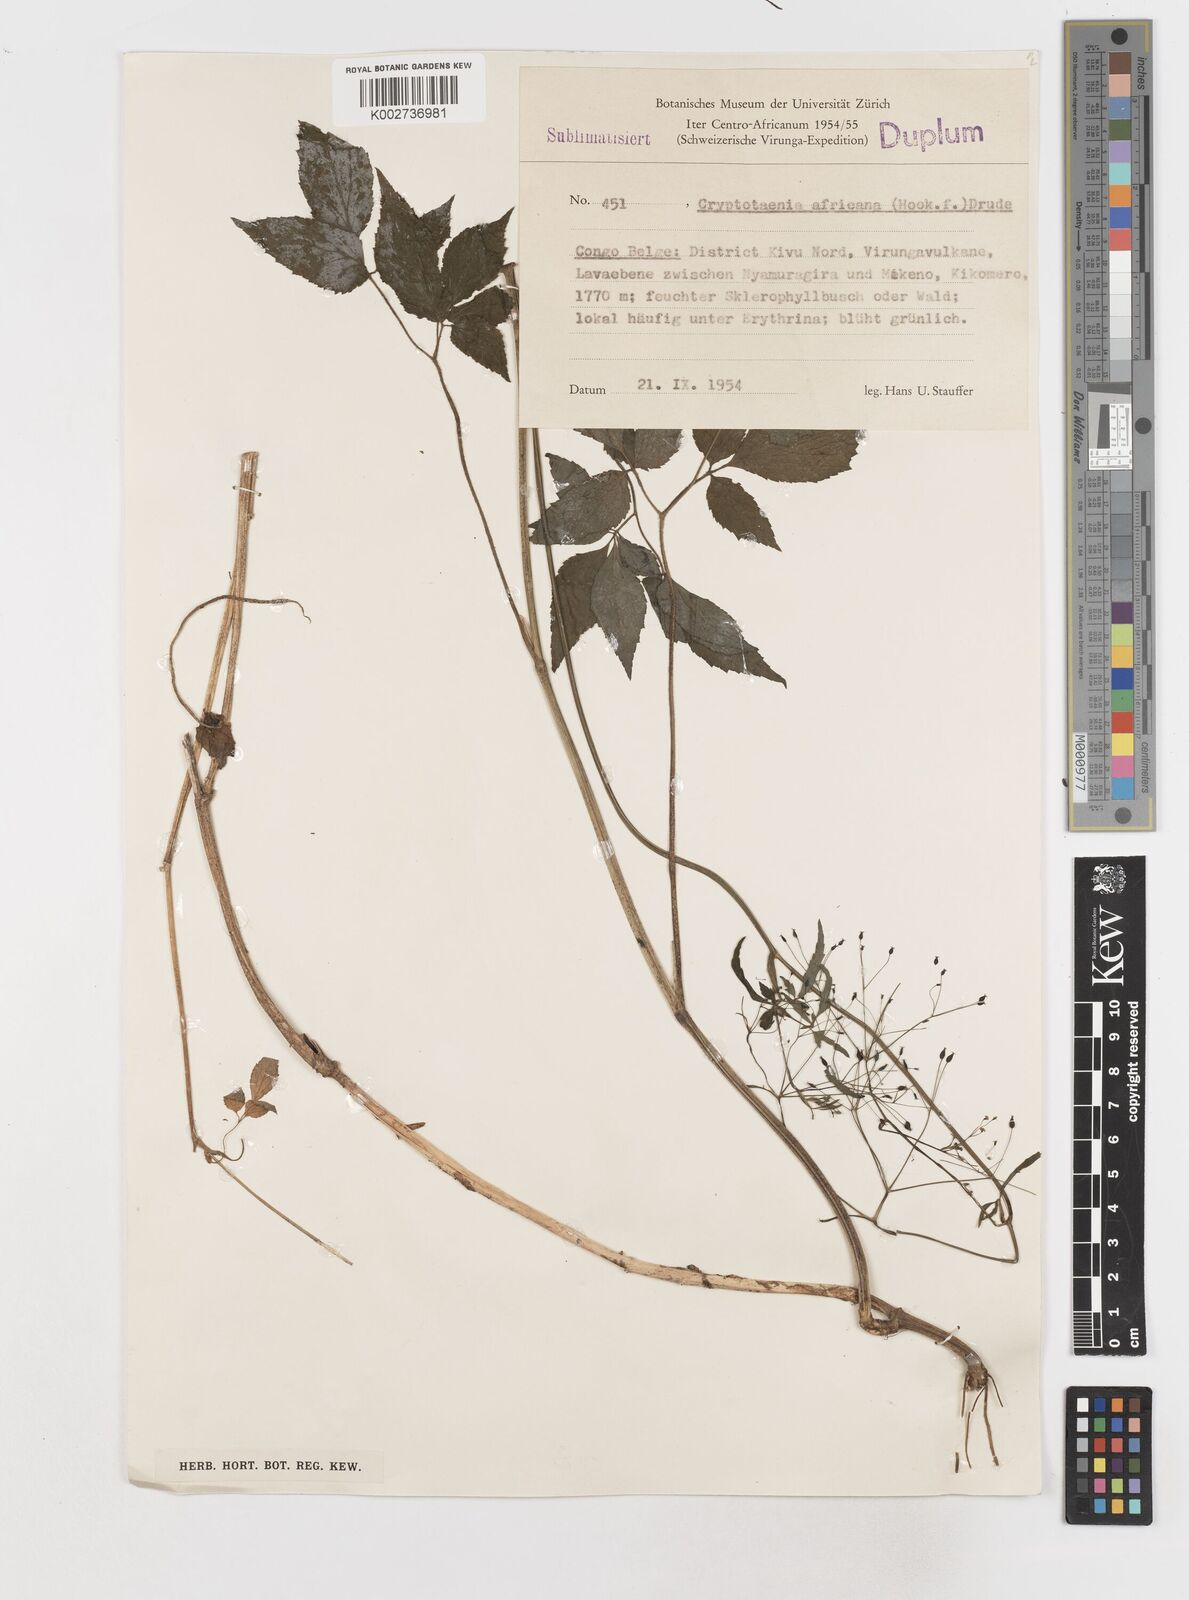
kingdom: Plantae
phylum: Tracheophyta
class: Magnoliopsida
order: Apiales
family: Apiaceae
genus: Cryptotaenia
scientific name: Cryptotaenia africana
